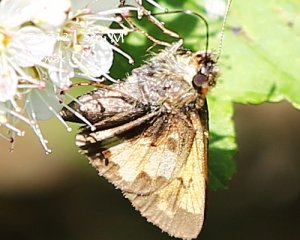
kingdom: Animalia
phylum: Arthropoda
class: Insecta
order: Lepidoptera
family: Hesperiidae
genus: Lon
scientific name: Lon hobomok
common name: Hobomok Skipper
